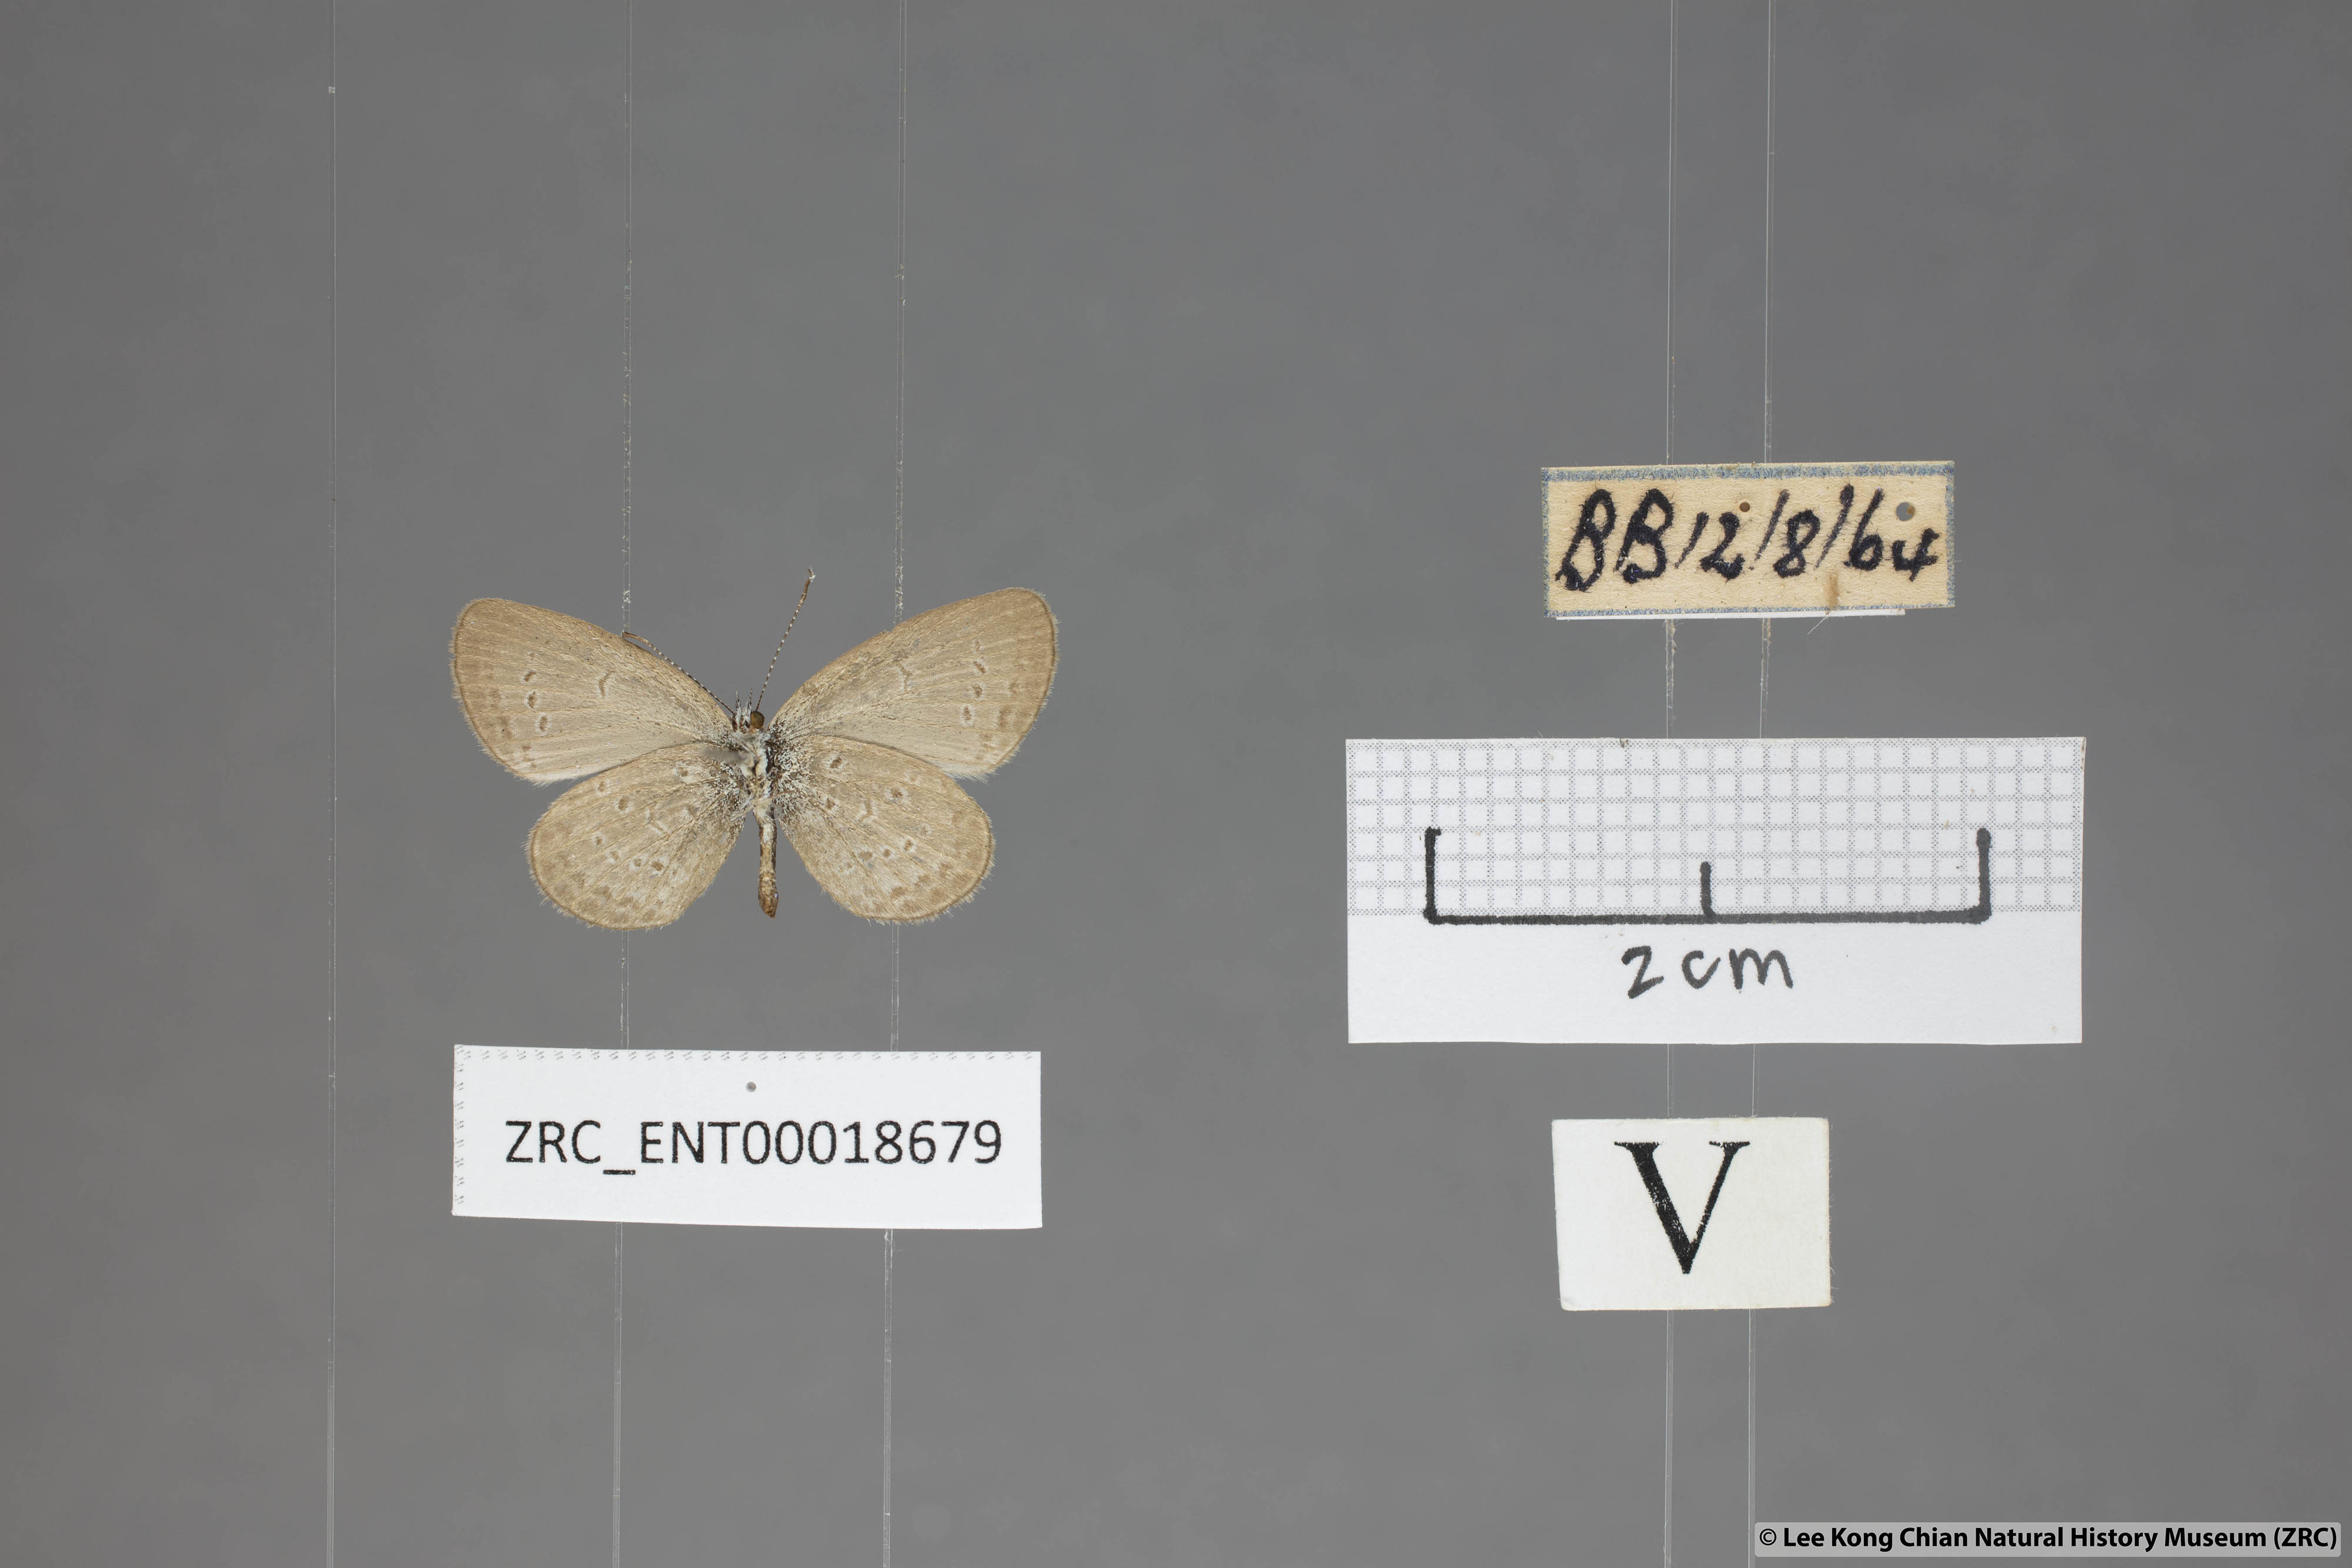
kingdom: Animalia
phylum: Arthropoda
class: Insecta
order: Lepidoptera
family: Lycaenidae
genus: Zizina
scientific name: Zizina otis
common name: Lesser grass blue
